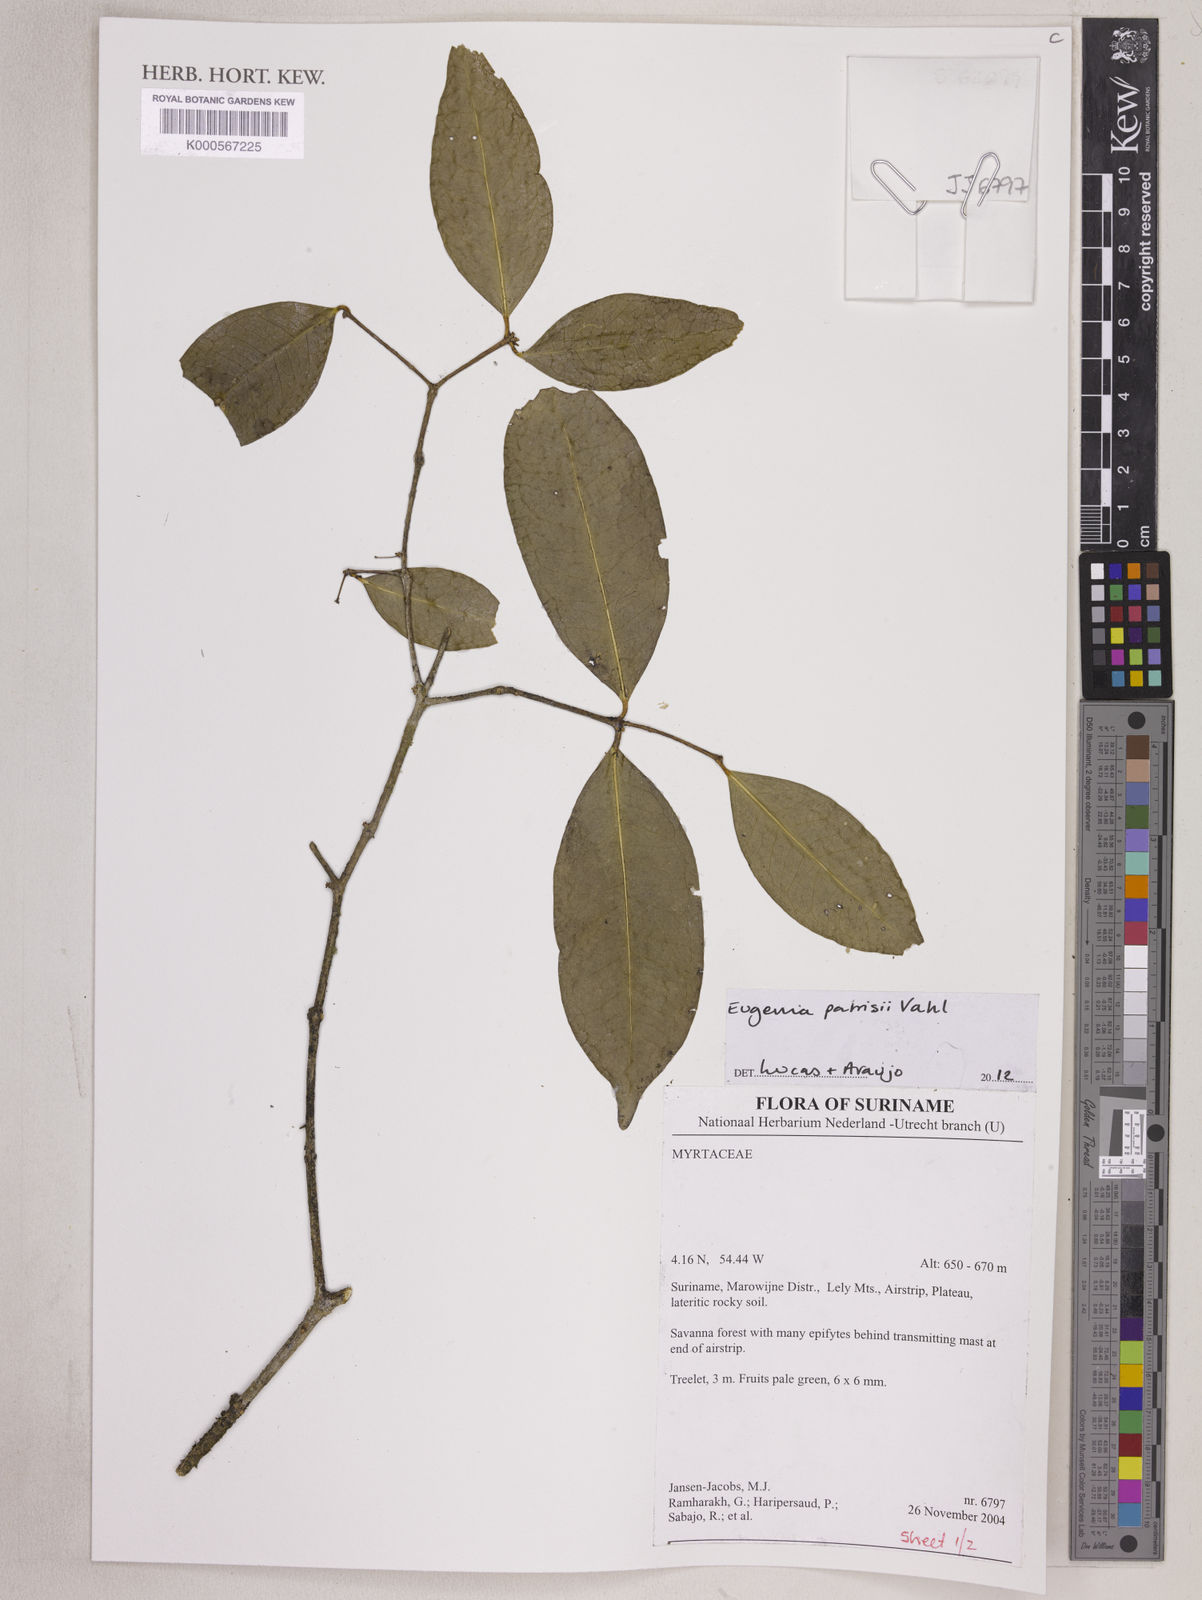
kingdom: Plantae
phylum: Tracheophyta
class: Magnoliopsida
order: Myrtales
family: Myrtaceae
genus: Eugenia
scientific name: Eugenia patrisii
